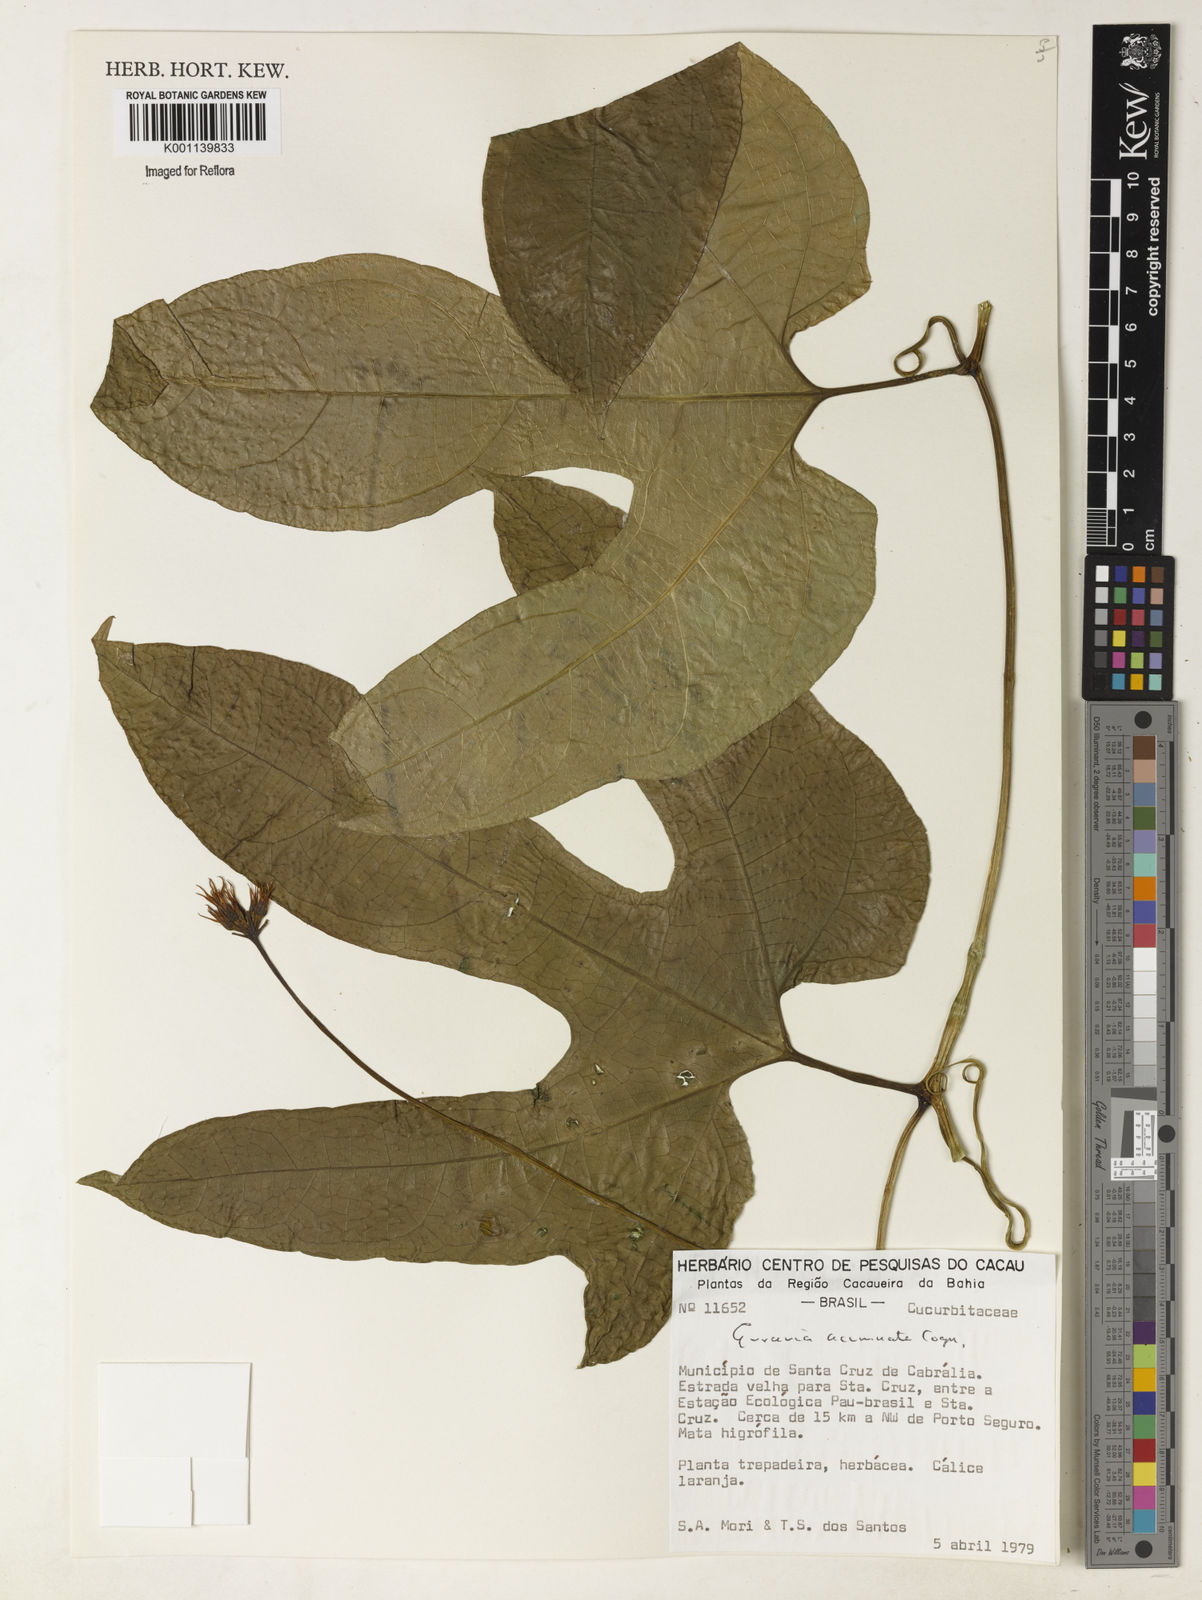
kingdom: Plantae
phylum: Tracheophyta
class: Magnoliopsida
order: Cucurbitales
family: Cucurbitaceae
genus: Gurania
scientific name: Gurania acuminata
